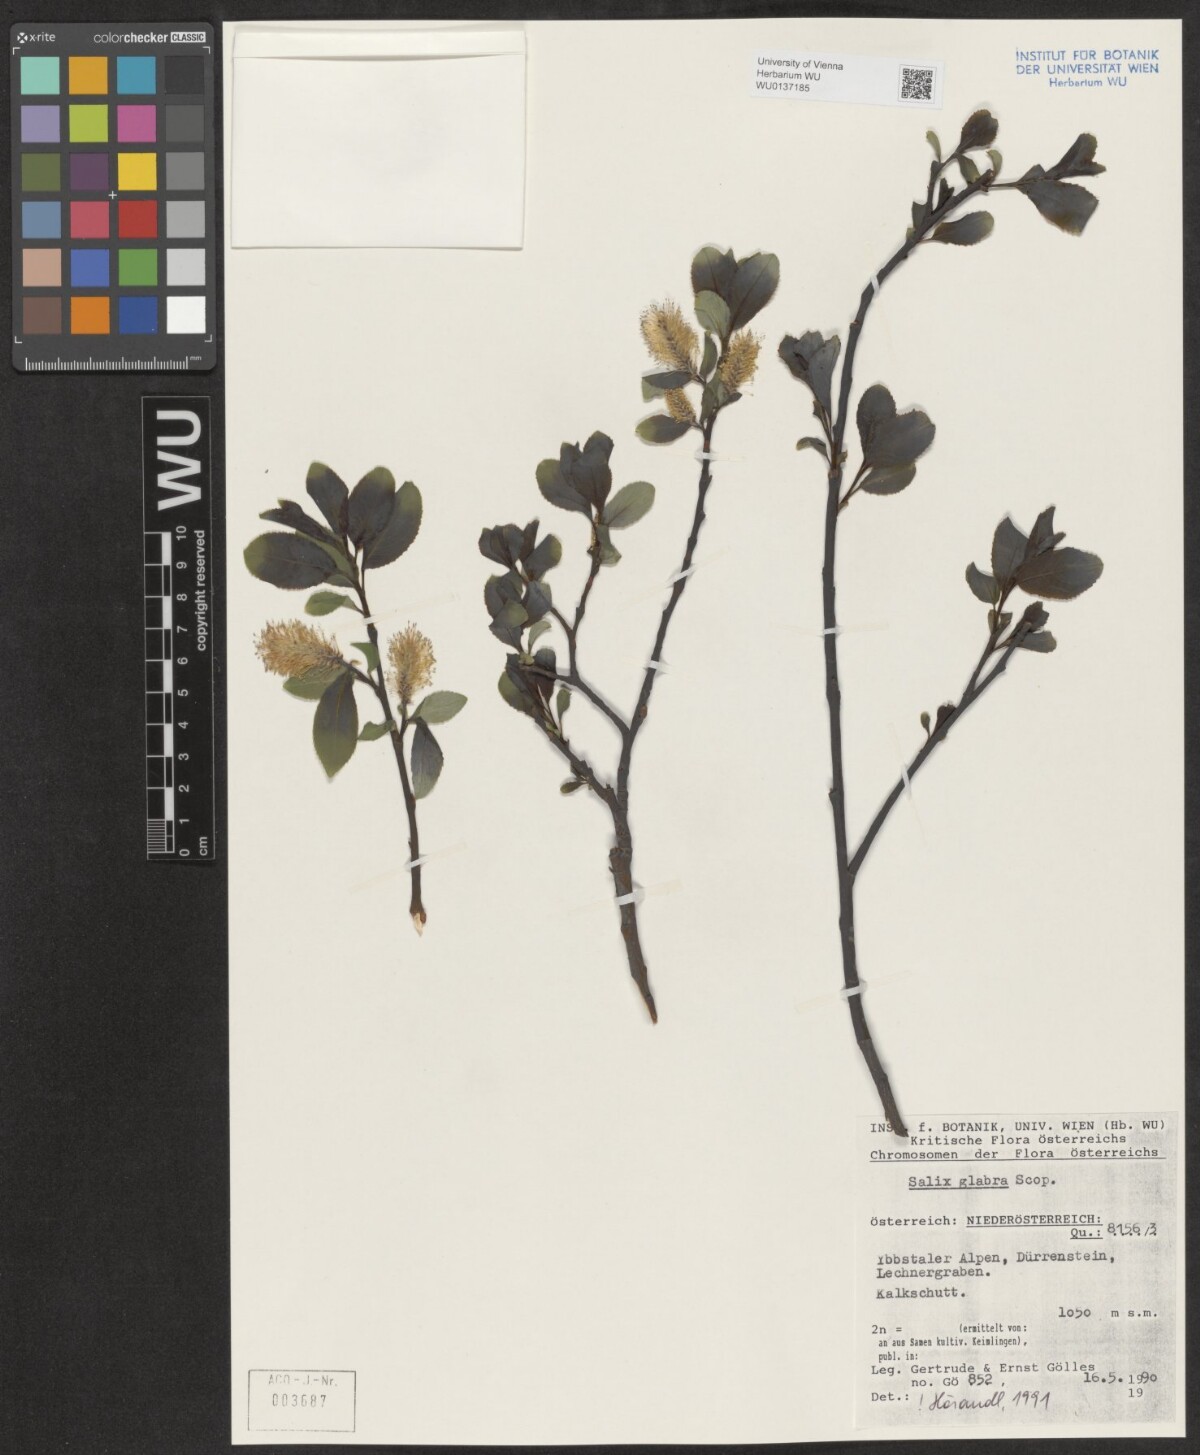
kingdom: Plantae
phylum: Tracheophyta
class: Magnoliopsida
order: Malpighiales
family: Salicaceae
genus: Salix
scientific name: Salix glabra
